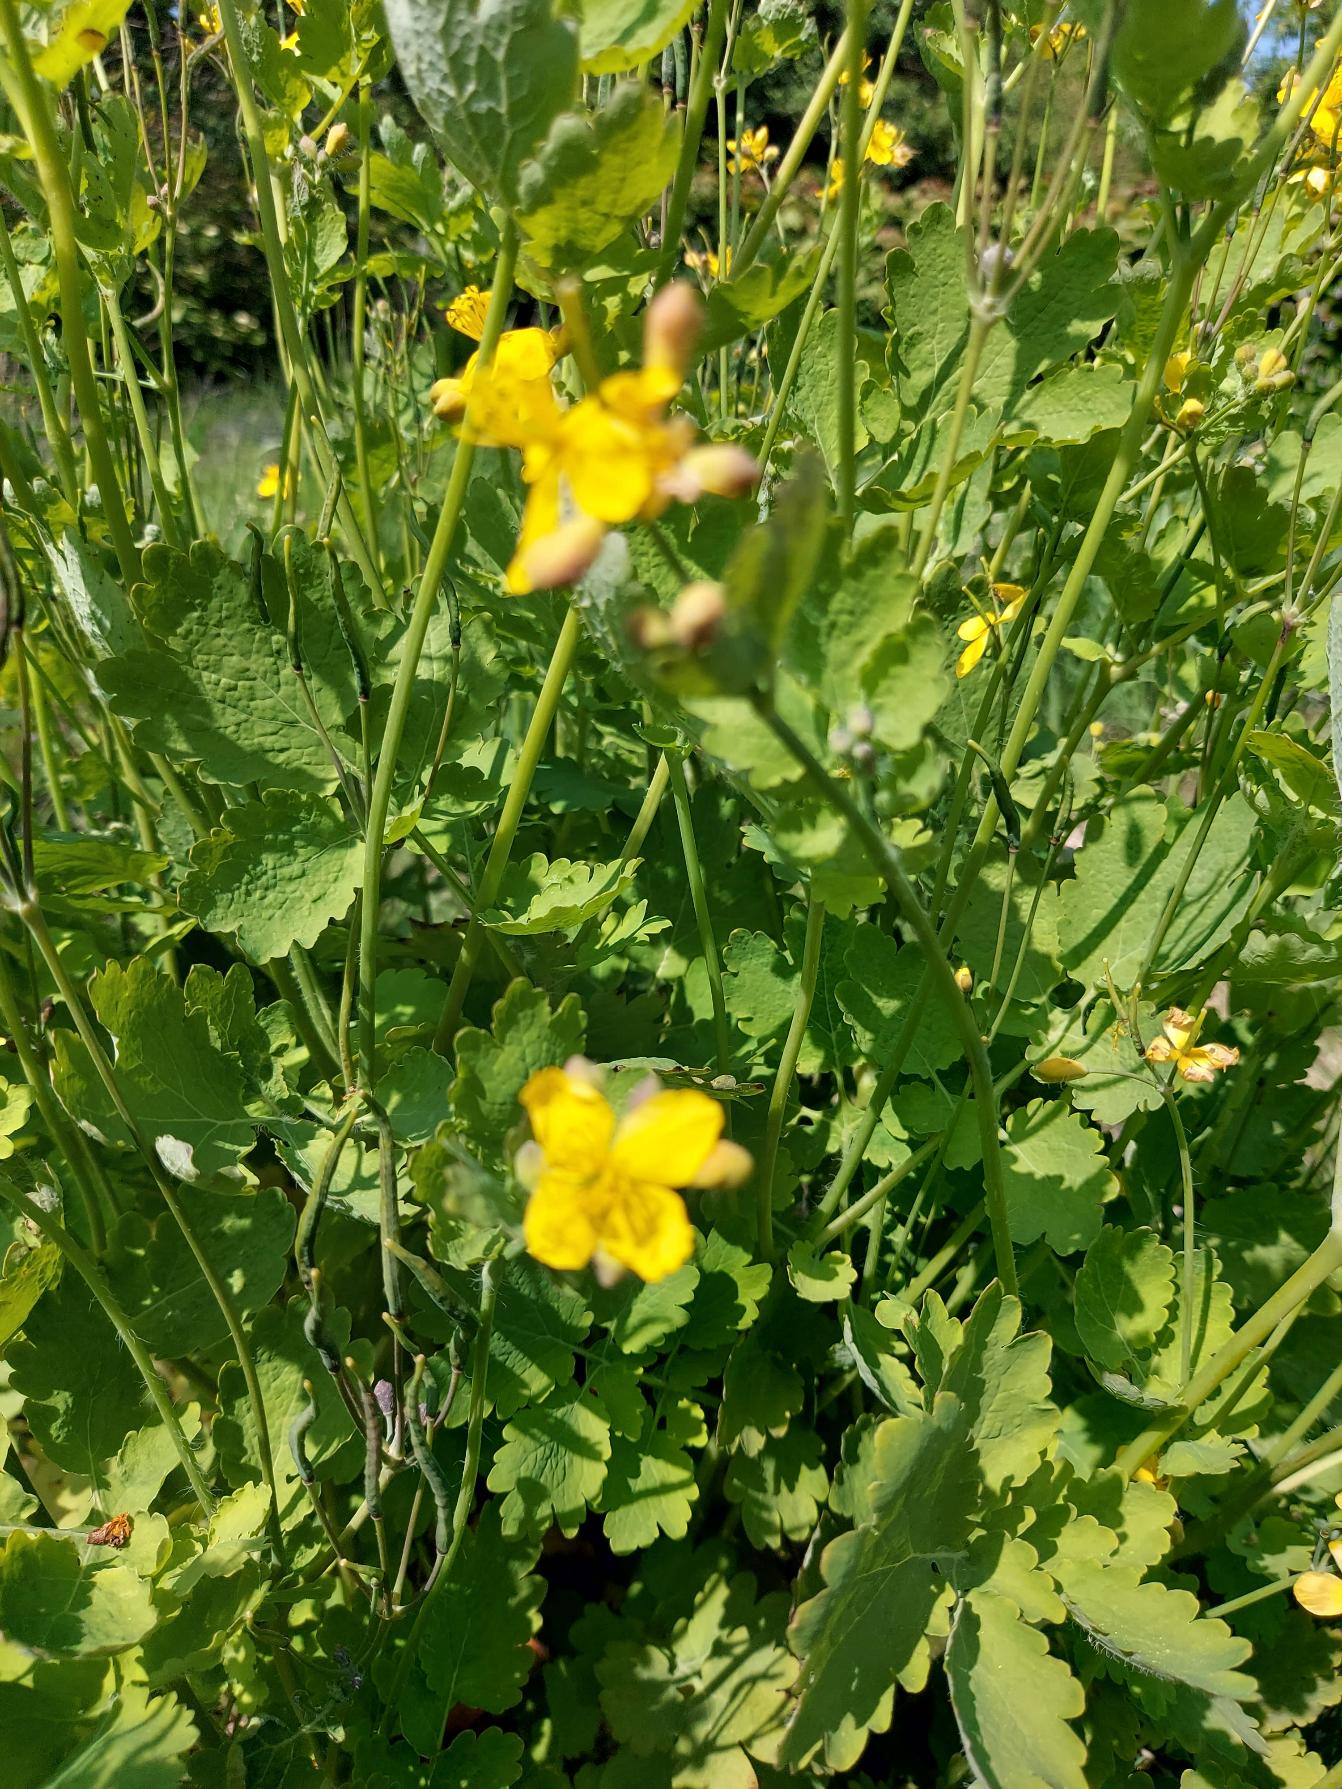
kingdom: Plantae
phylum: Tracheophyta
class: Magnoliopsida
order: Ranunculales
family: Papaveraceae
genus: Chelidonium
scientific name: Chelidonium majus
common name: Svaleurt
